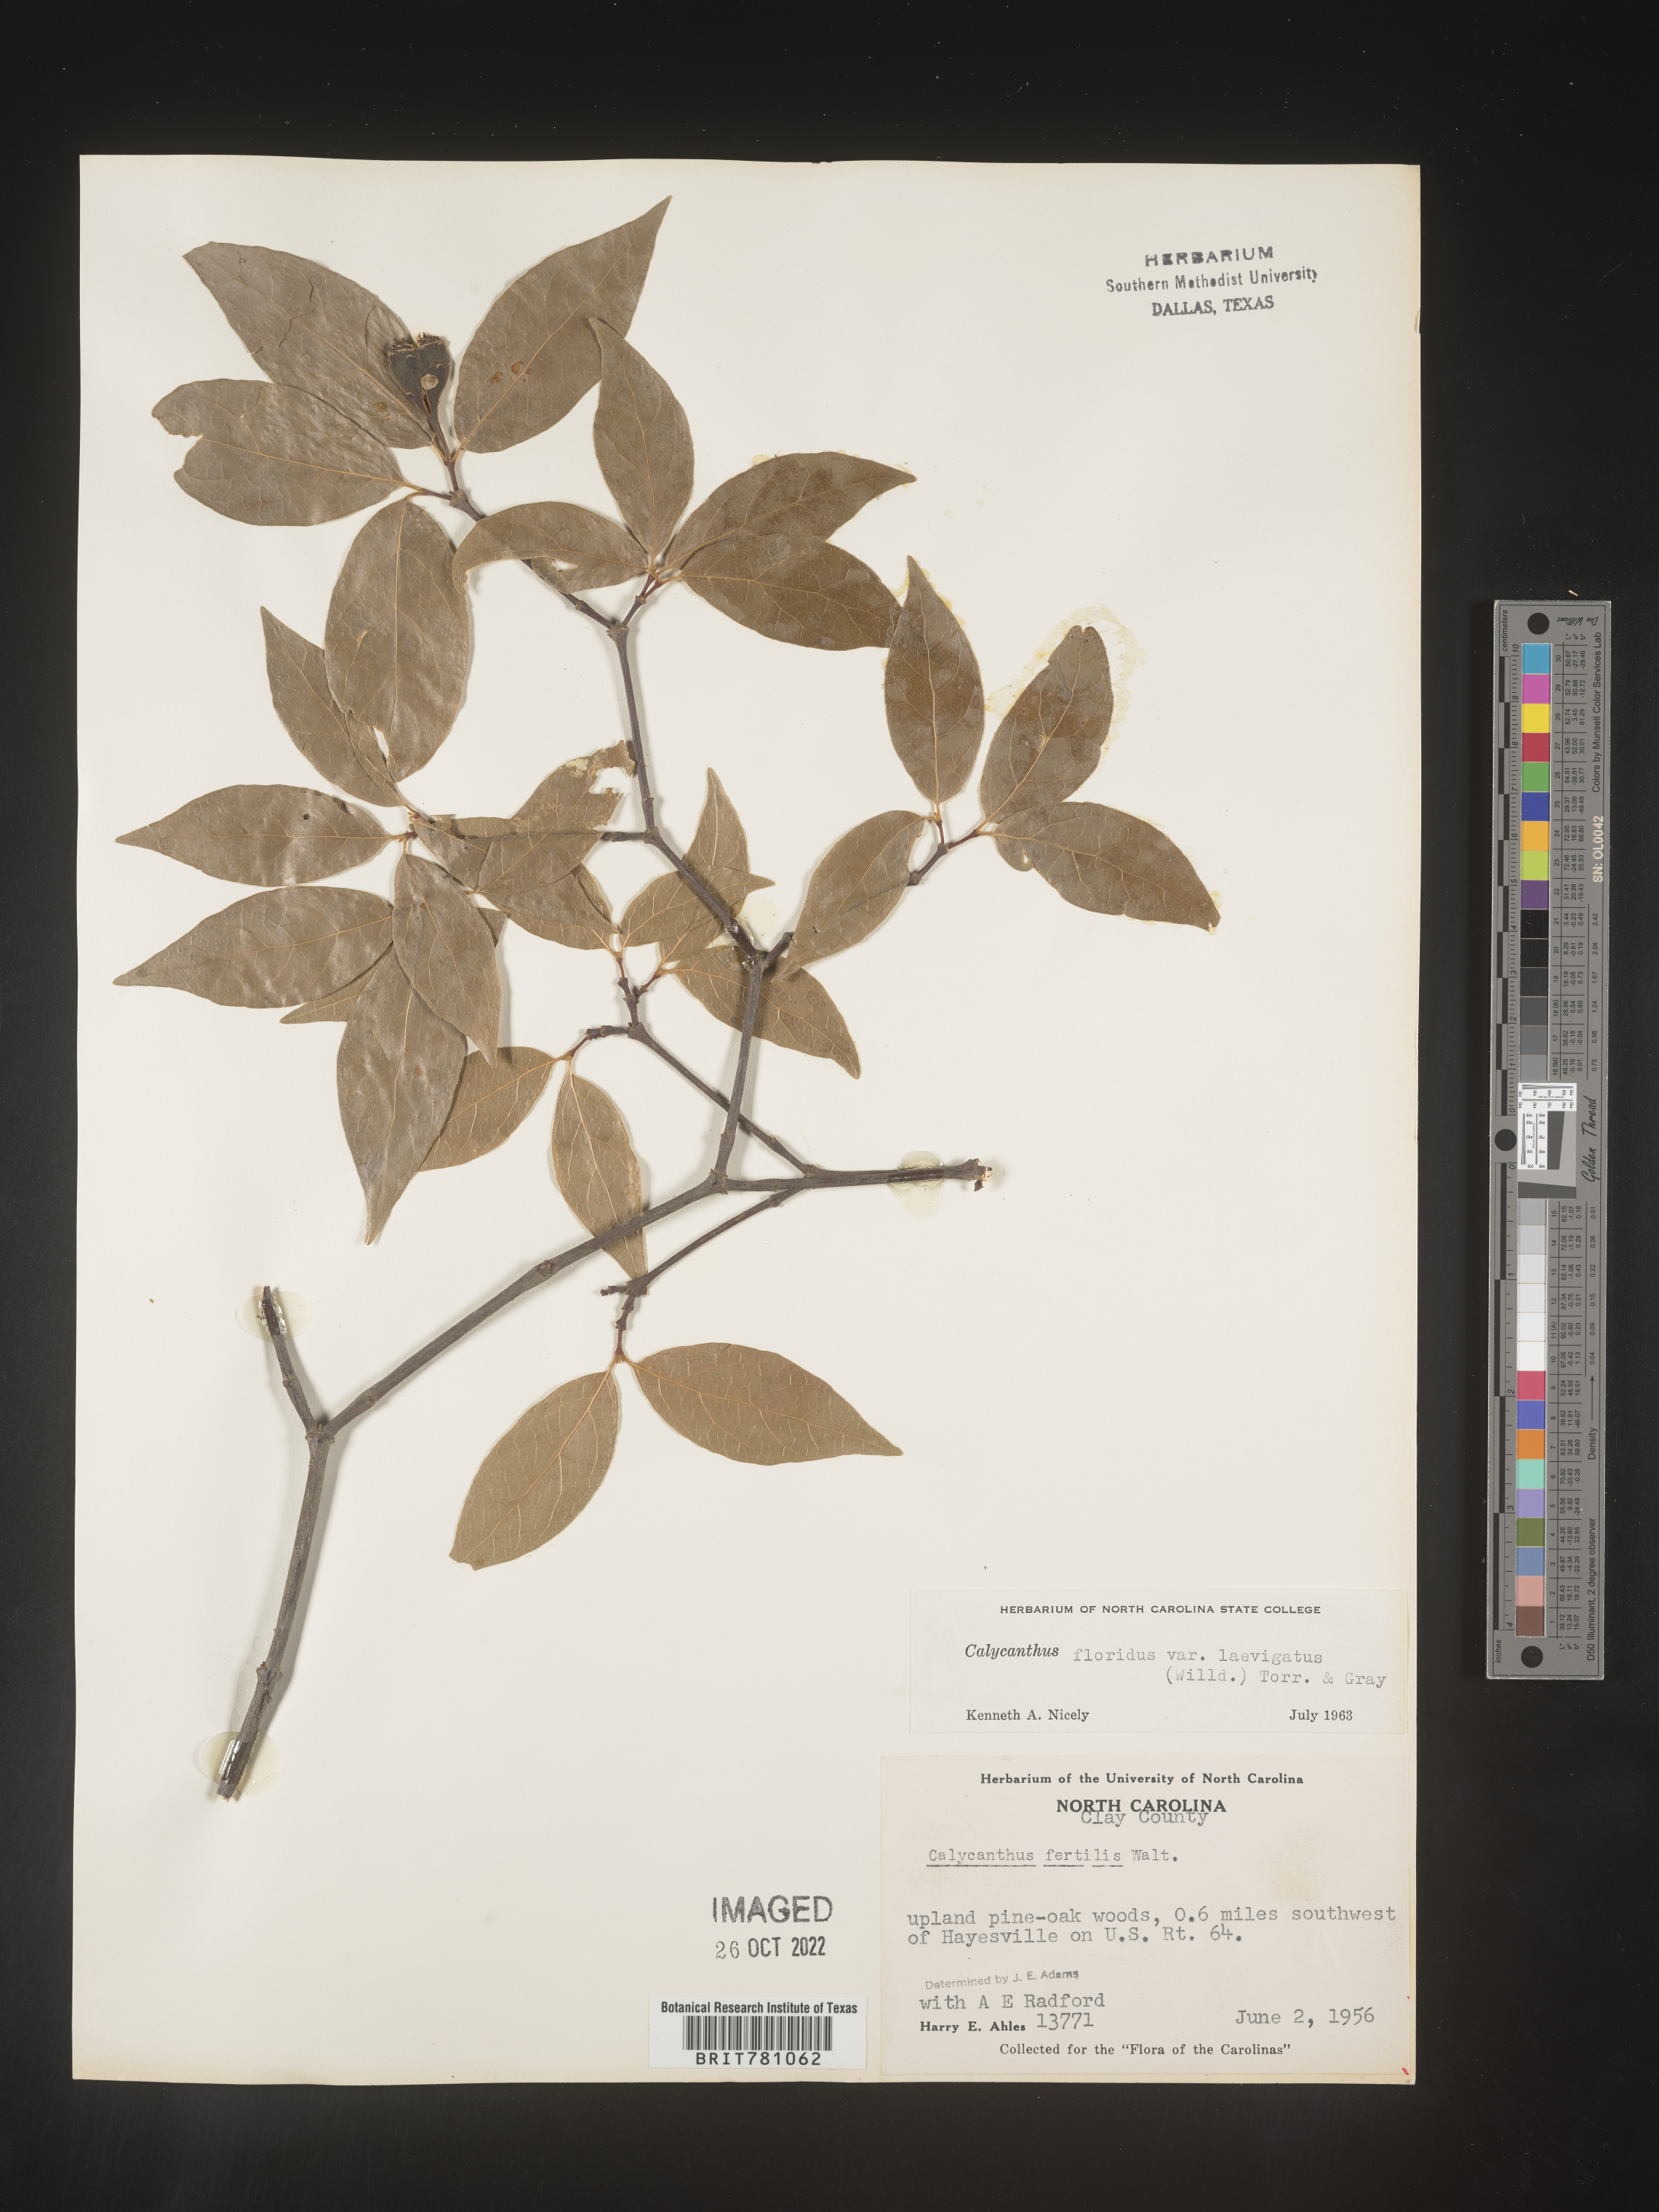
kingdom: Plantae
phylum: Tracheophyta
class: Magnoliopsida
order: Laurales
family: Calycanthaceae
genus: Calycanthus
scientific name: Calycanthus floridus
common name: Carolina-allspice
